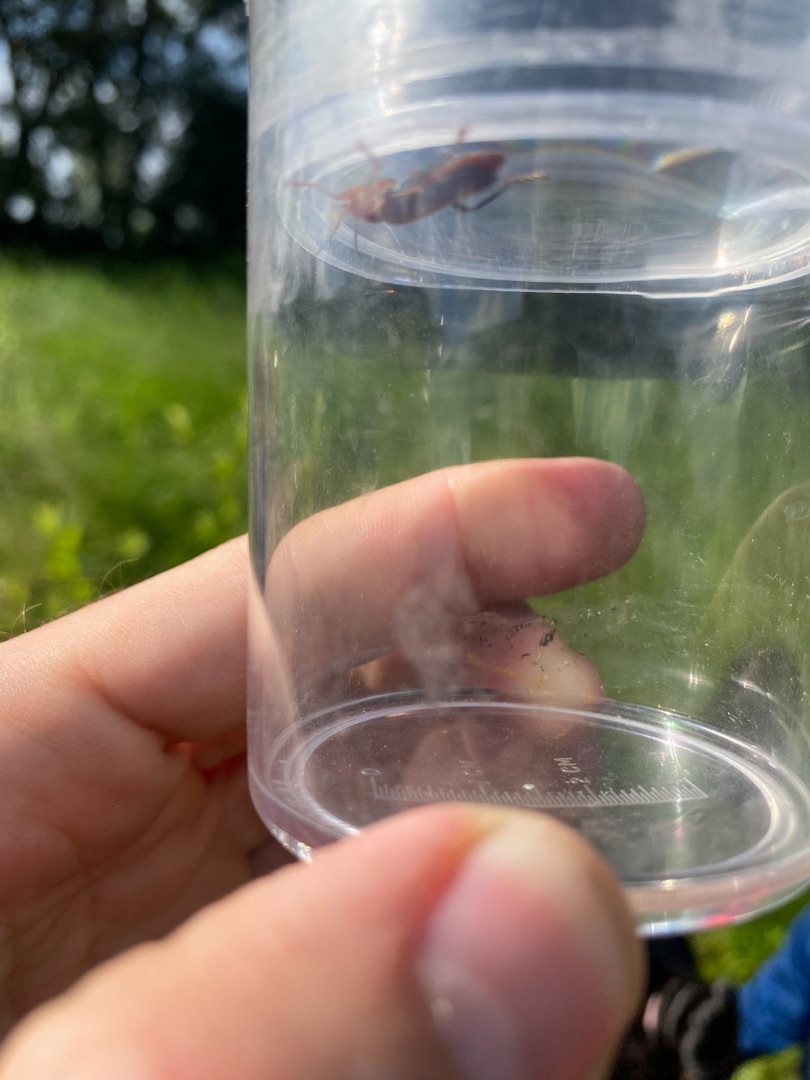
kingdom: Animalia
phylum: Arthropoda
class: Insecta
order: Coleoptera
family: Cantharidae
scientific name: Cantharidae
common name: Blødvinger
